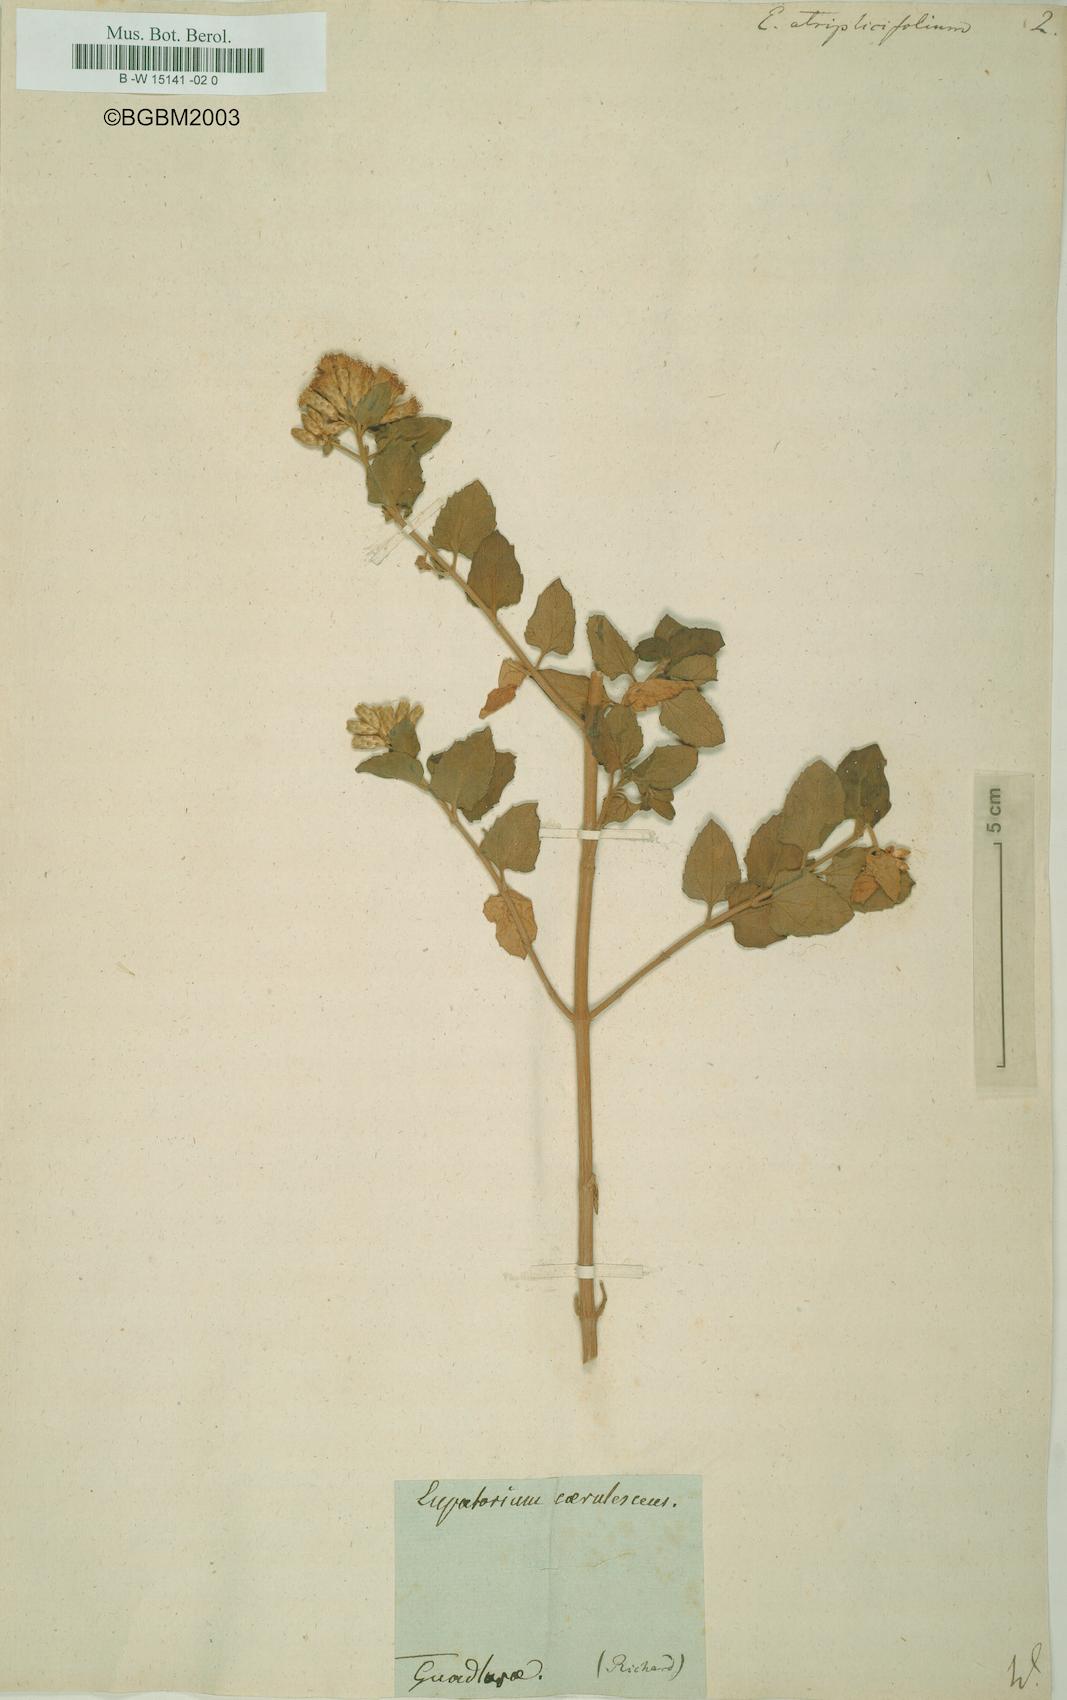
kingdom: Plantae
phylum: Tracheophyta
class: Magnoliopsida
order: Asterales
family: Asteraceae
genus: Chromolaena
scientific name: Chromolaena
